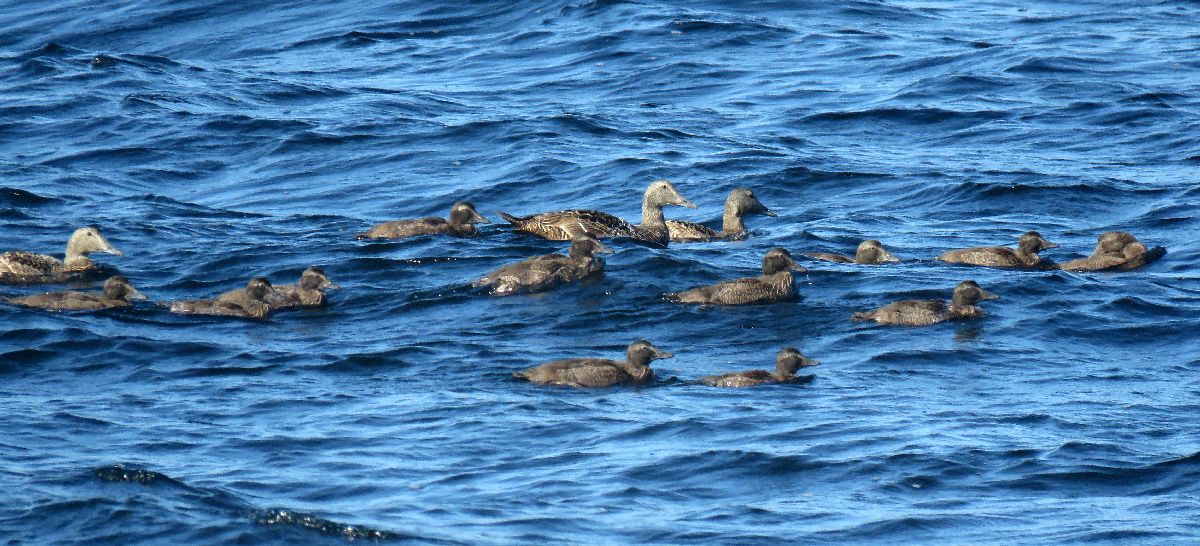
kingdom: Animalia
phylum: Chordata
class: Aves
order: Anseriformes
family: Anatidae
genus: Somateria
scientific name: Somateria mollissima
